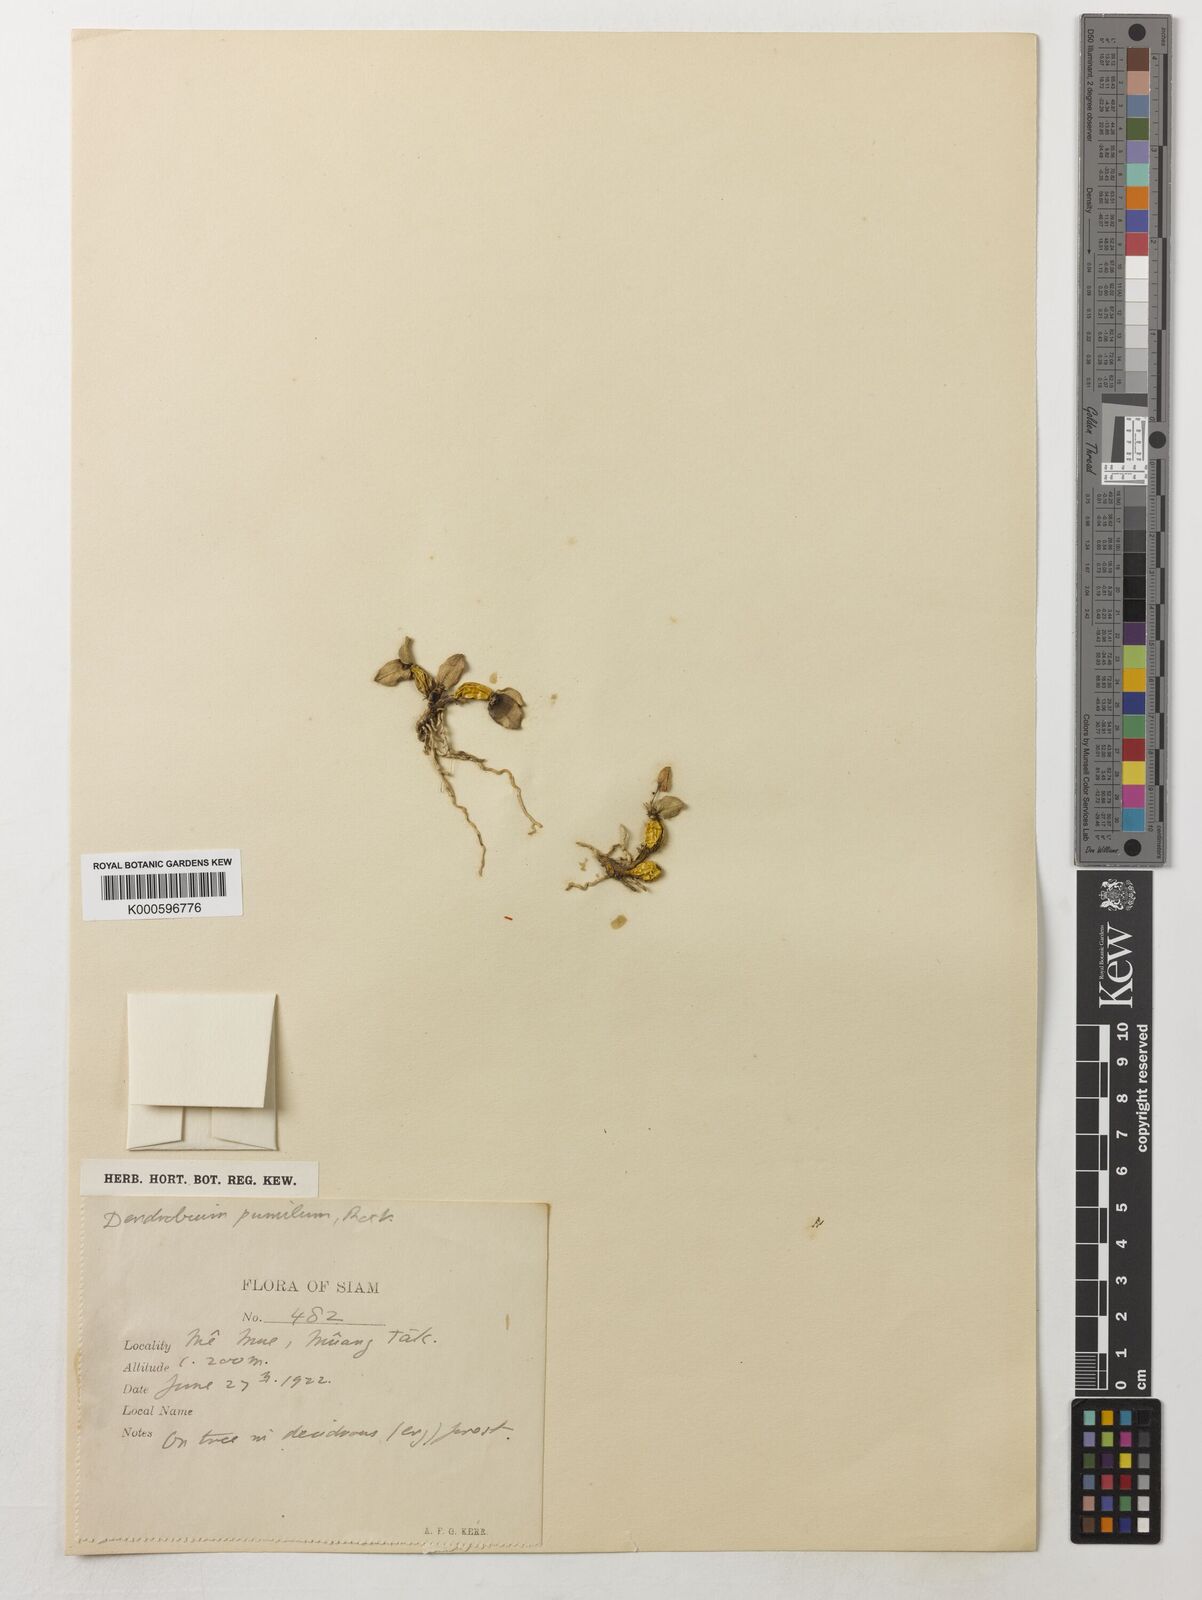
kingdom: Plantae
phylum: Tracheophyta
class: Liliopsida
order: Asparagales
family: Orchidaceae
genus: Dendrobium
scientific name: Dendrobium pachyphyllum
